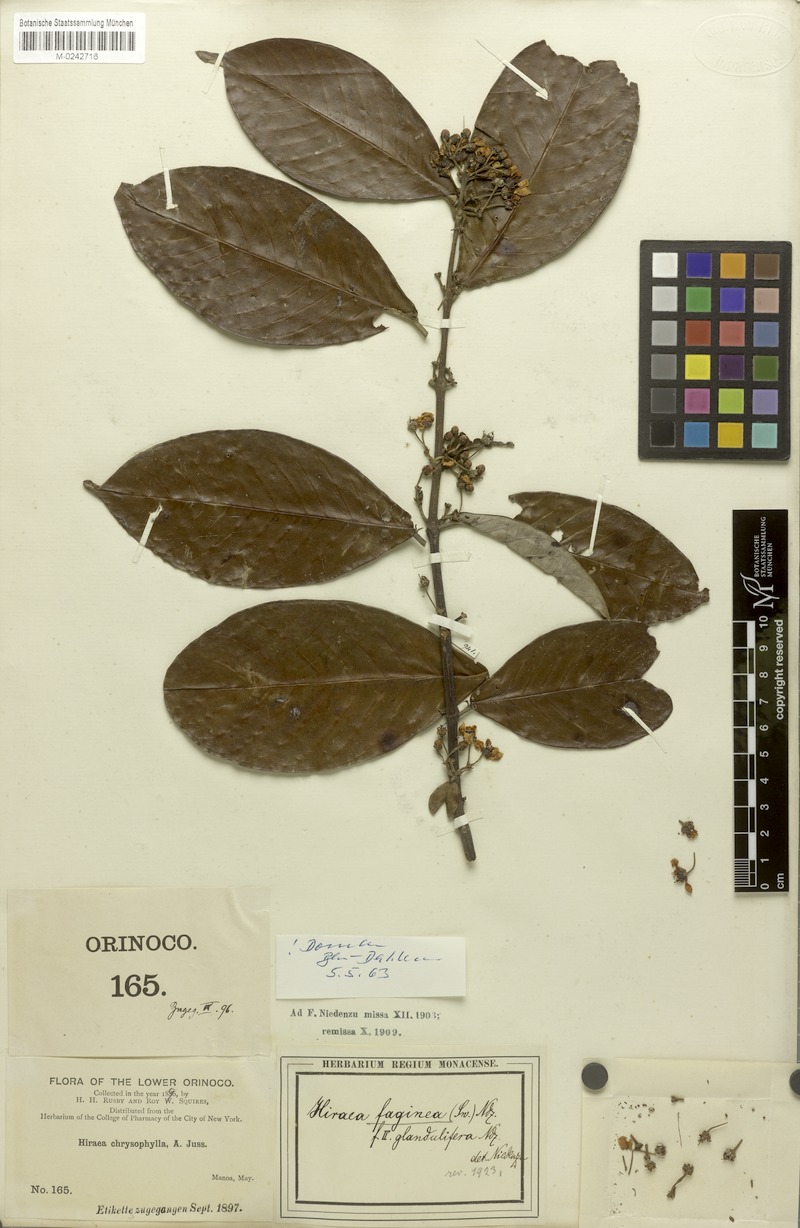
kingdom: Plantae
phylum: Tracheophyta
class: Magnoliopsida
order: Malpighiales
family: Malpighiaceae
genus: Hiraea
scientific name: Hiraea faginea
